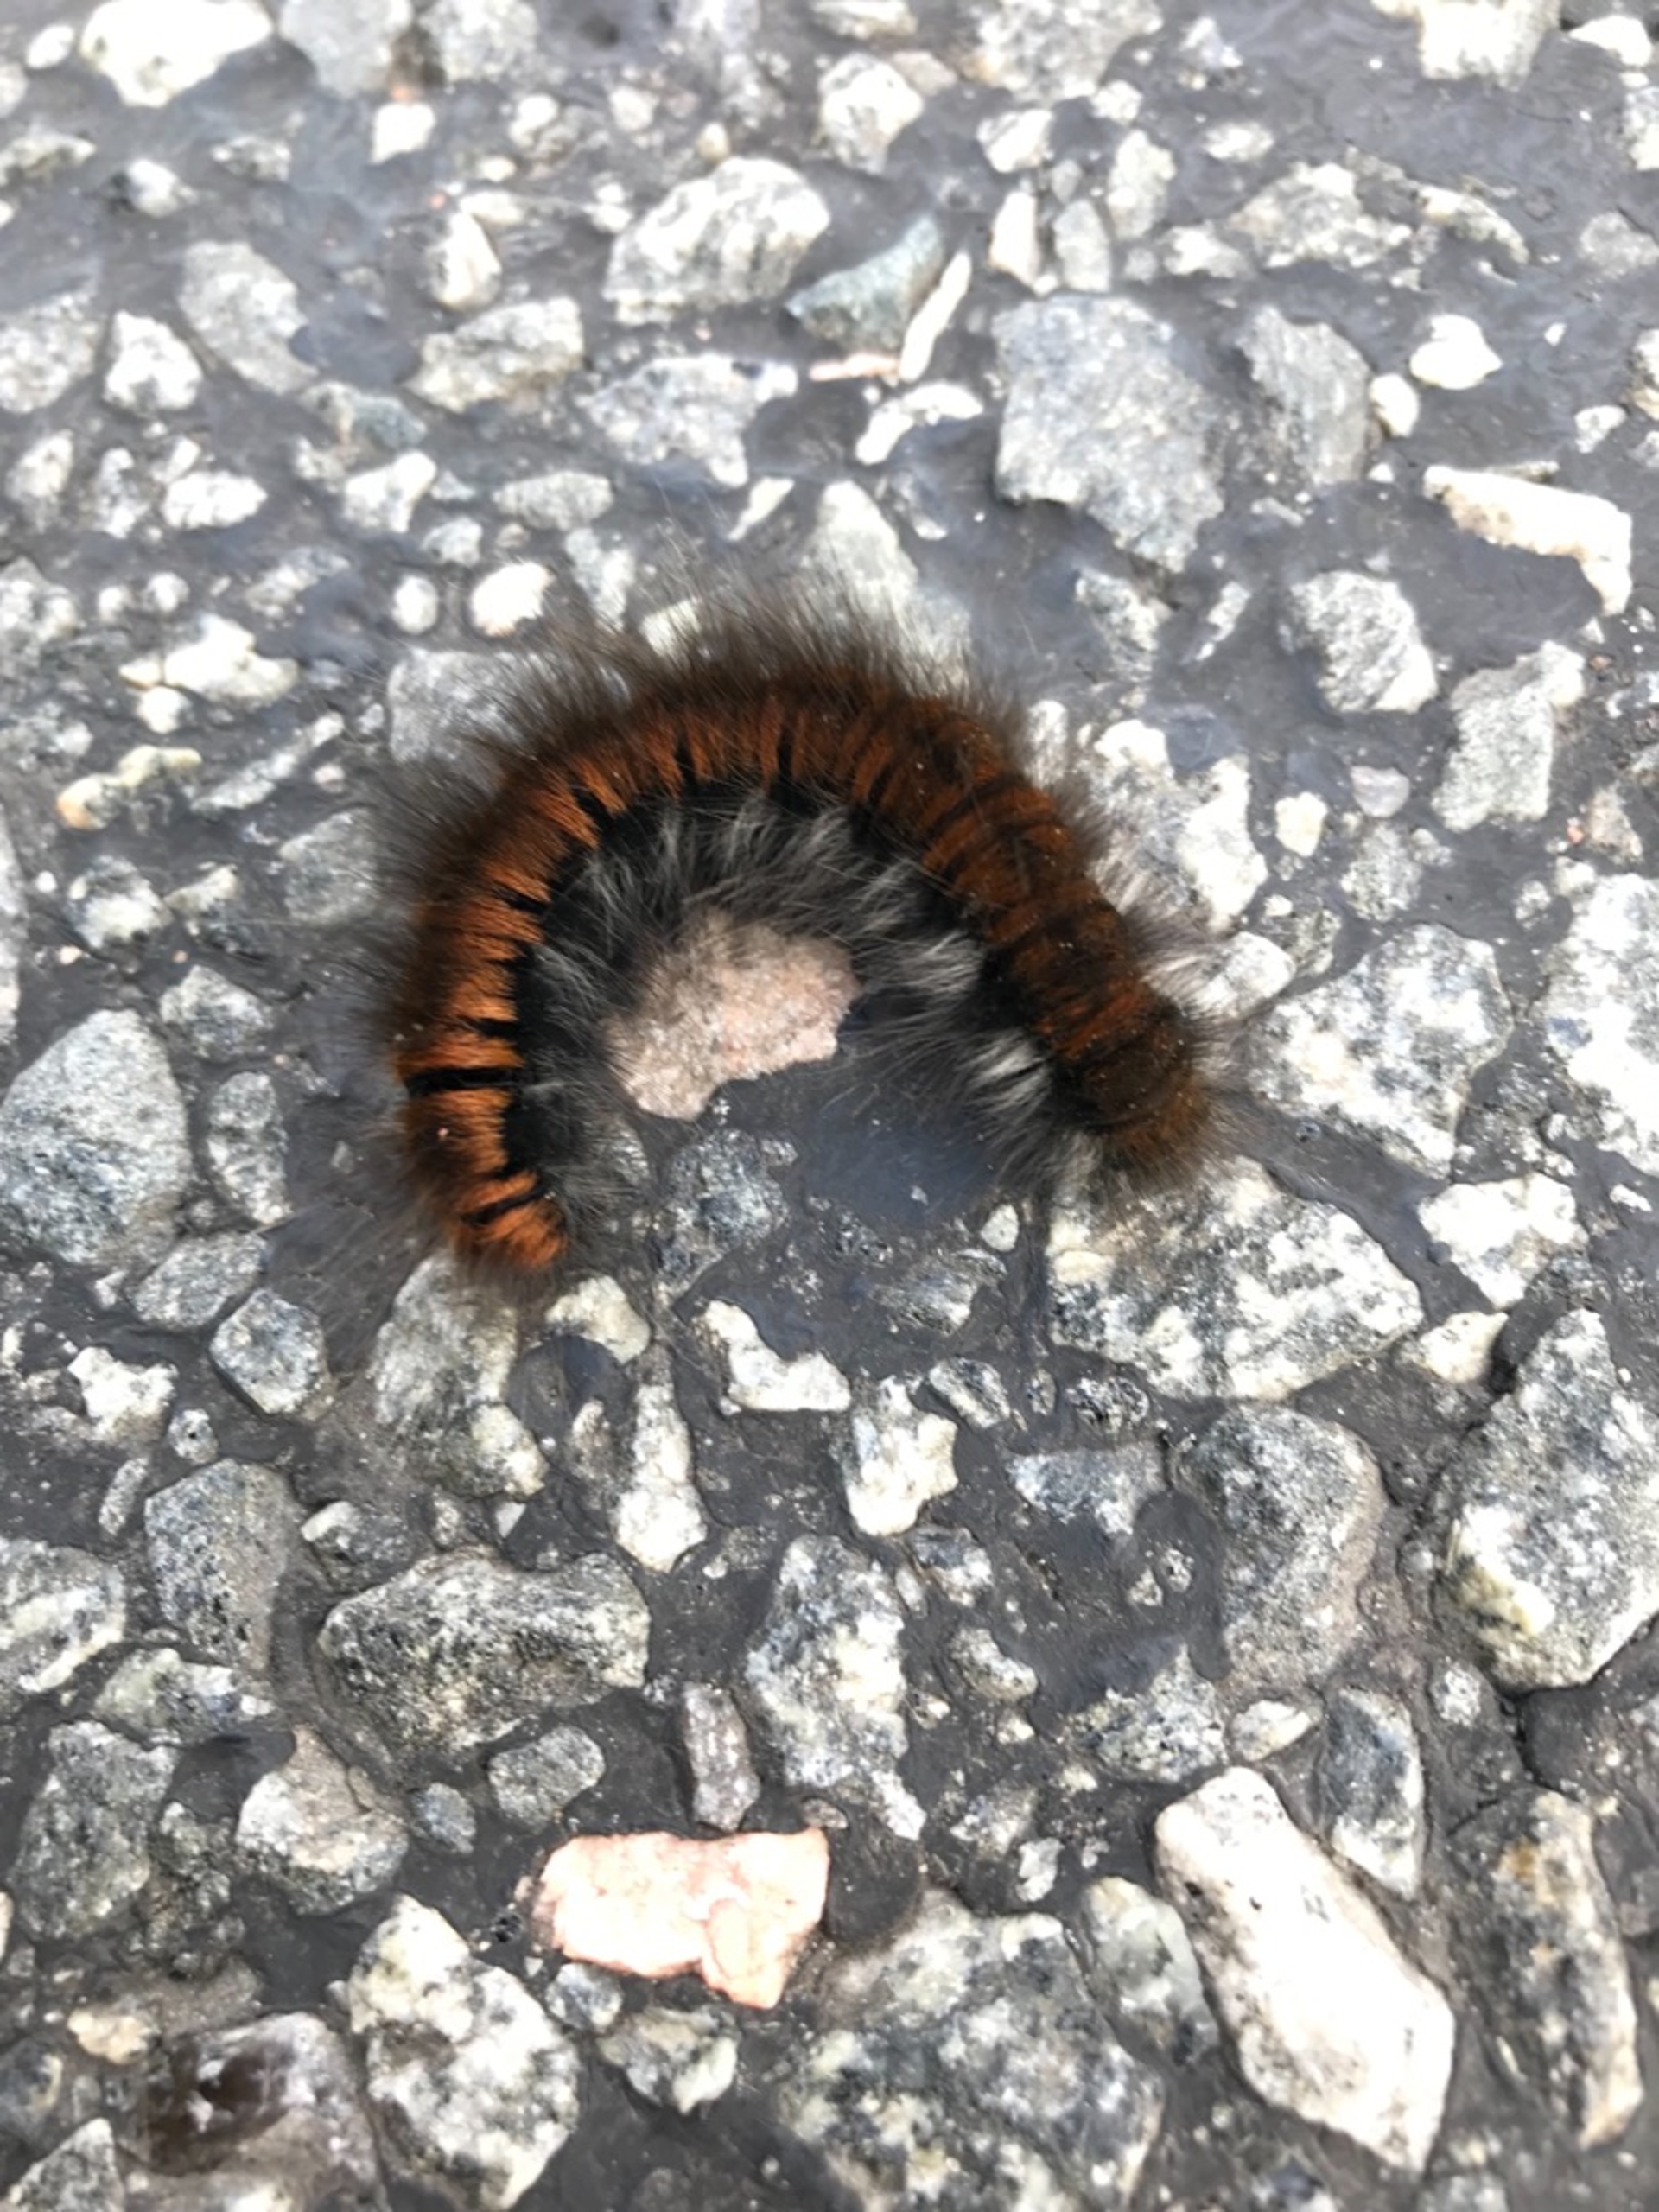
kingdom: Animalia
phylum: Arthropoda
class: Insecta
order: Lepidoptera
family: Lasiocampidae
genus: Macrothylacia
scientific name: Macrothylacia rubi
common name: Brombærspinder
